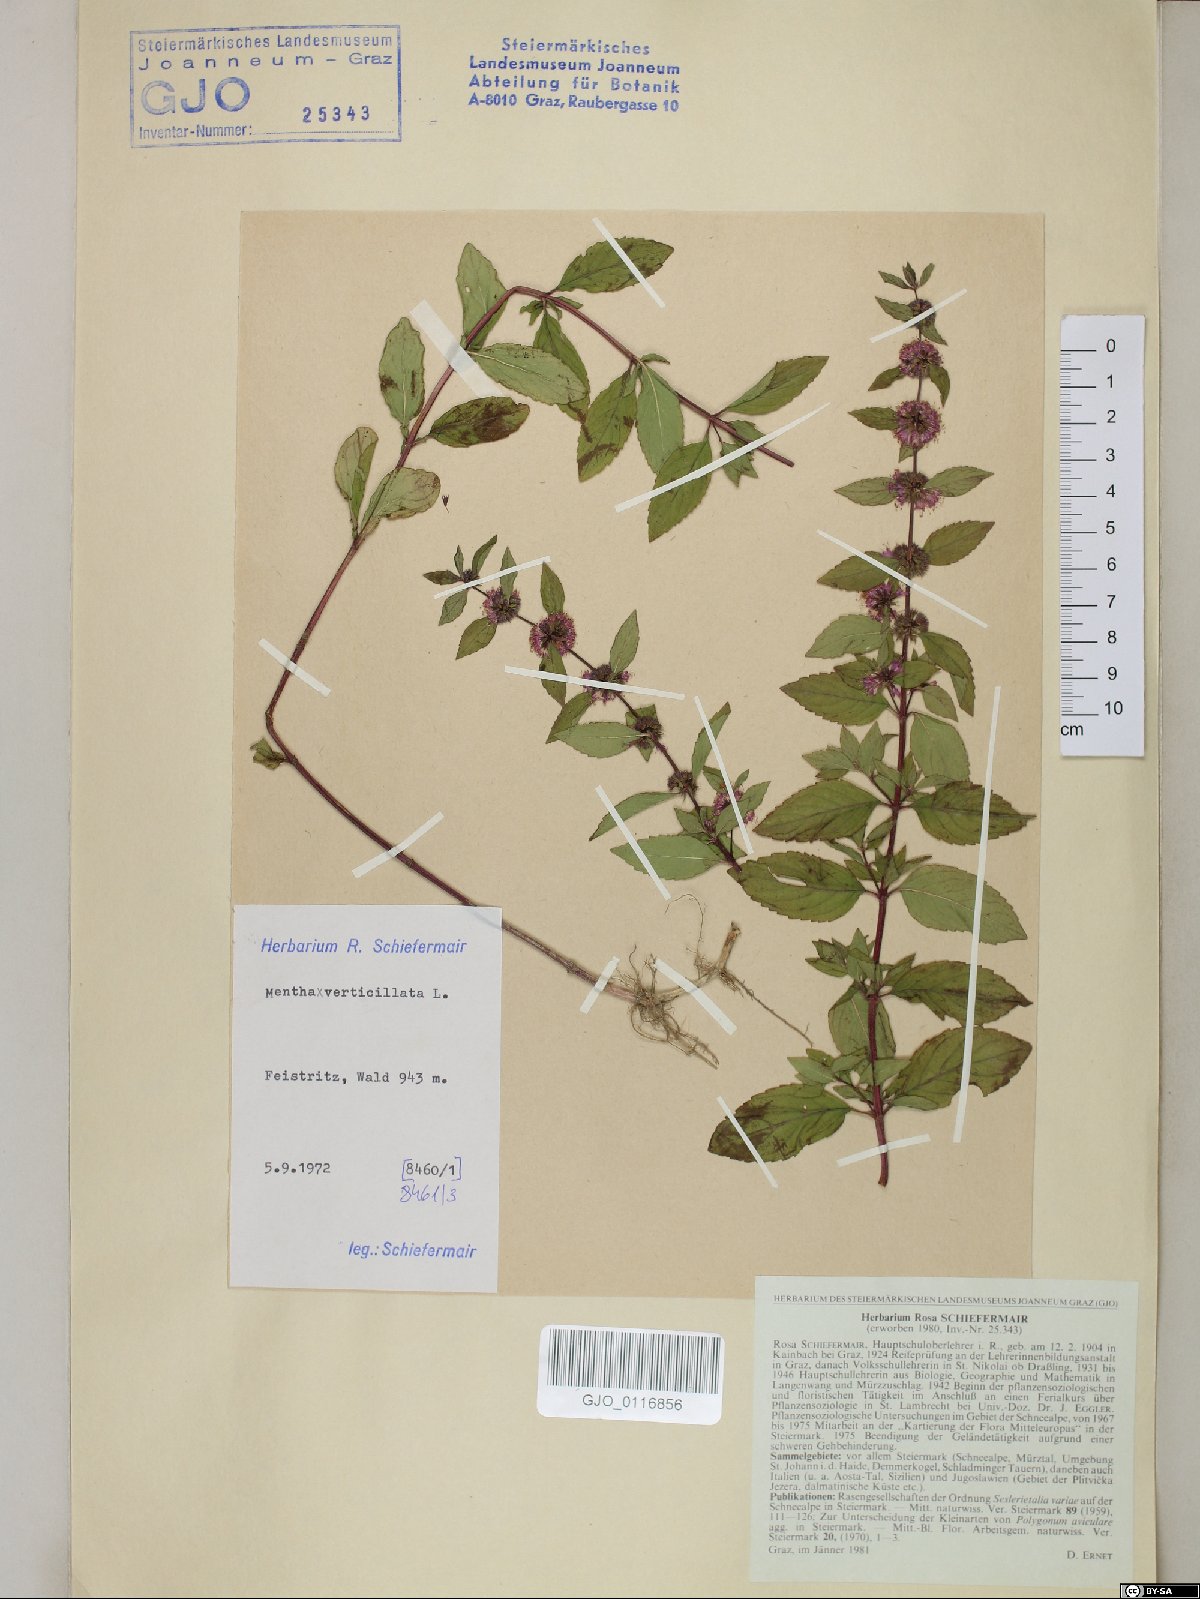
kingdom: Plantae
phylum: Tracheophyta
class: Magnoliopsida
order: Lamiales
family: Lamiaceae
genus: Mentha
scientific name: Mentha verticillata
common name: Mint
